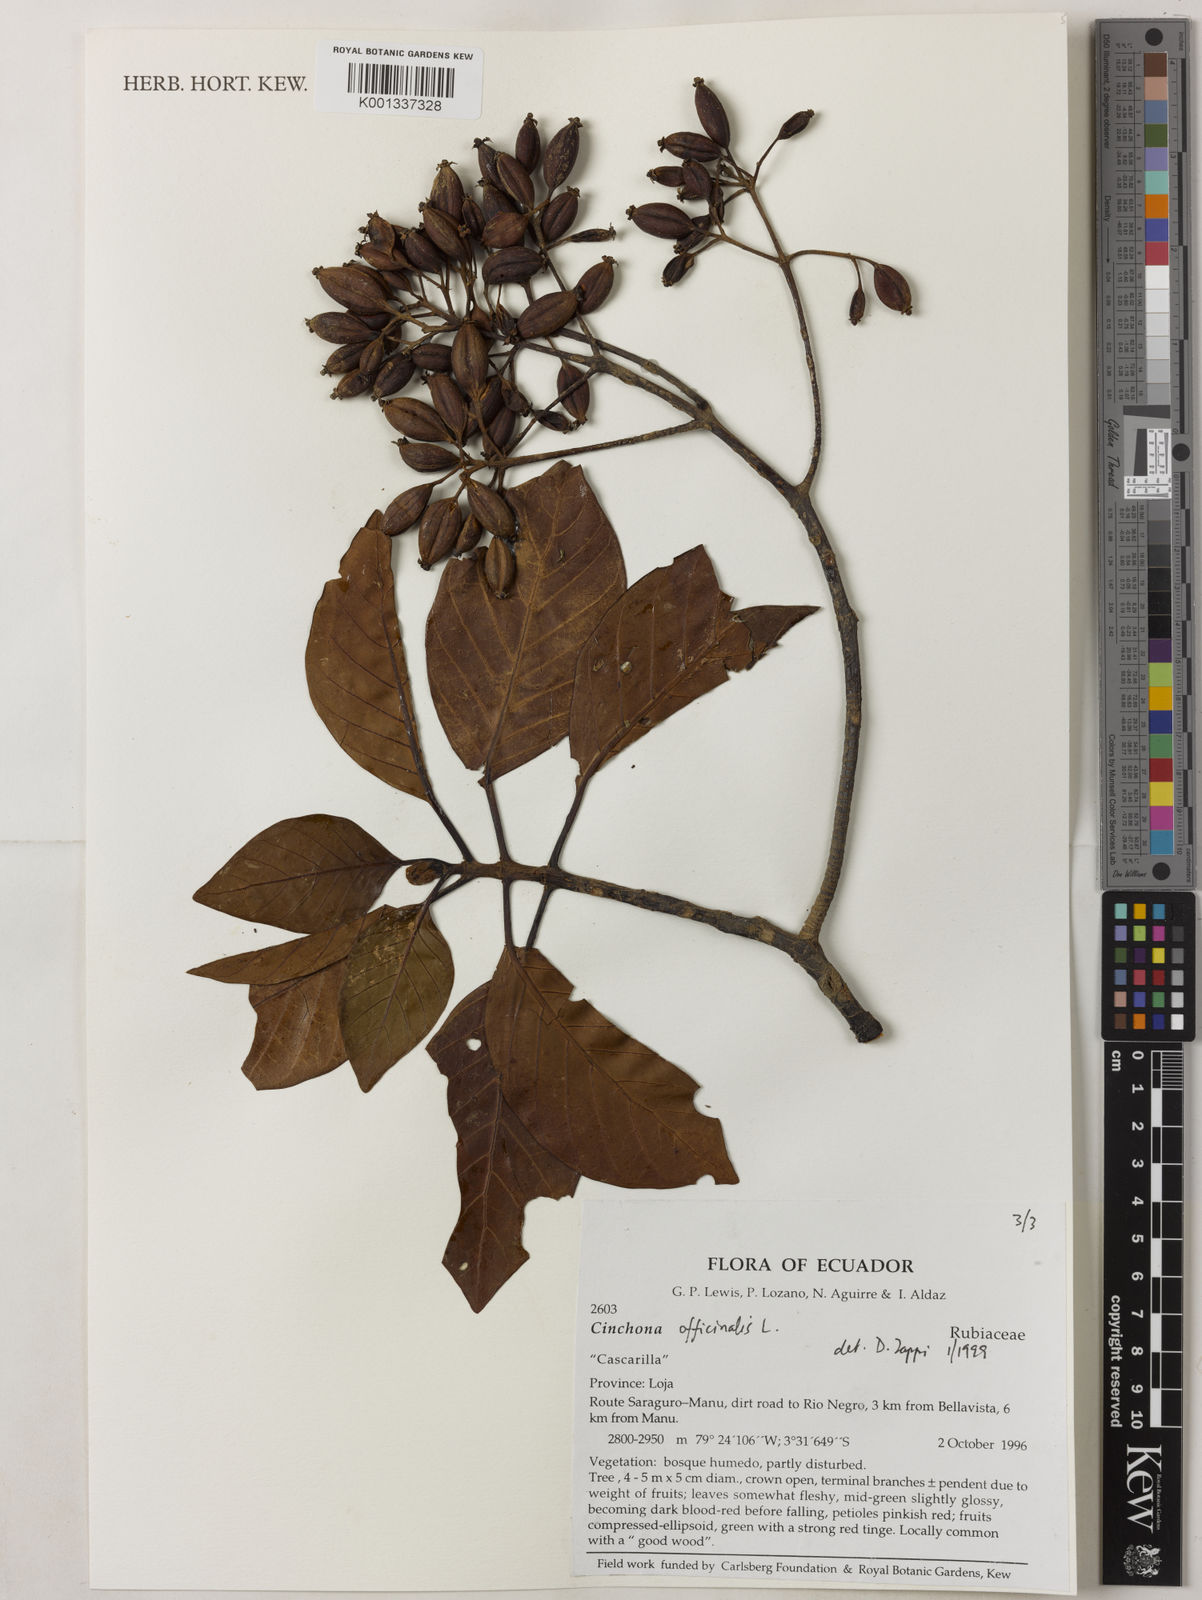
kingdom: Plantae
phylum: Tracheophyta
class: Magnoliopsida
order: Gentianales
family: Rubiaceae
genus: Cinchona
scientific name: Cinchona officinalis
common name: Lojabark
